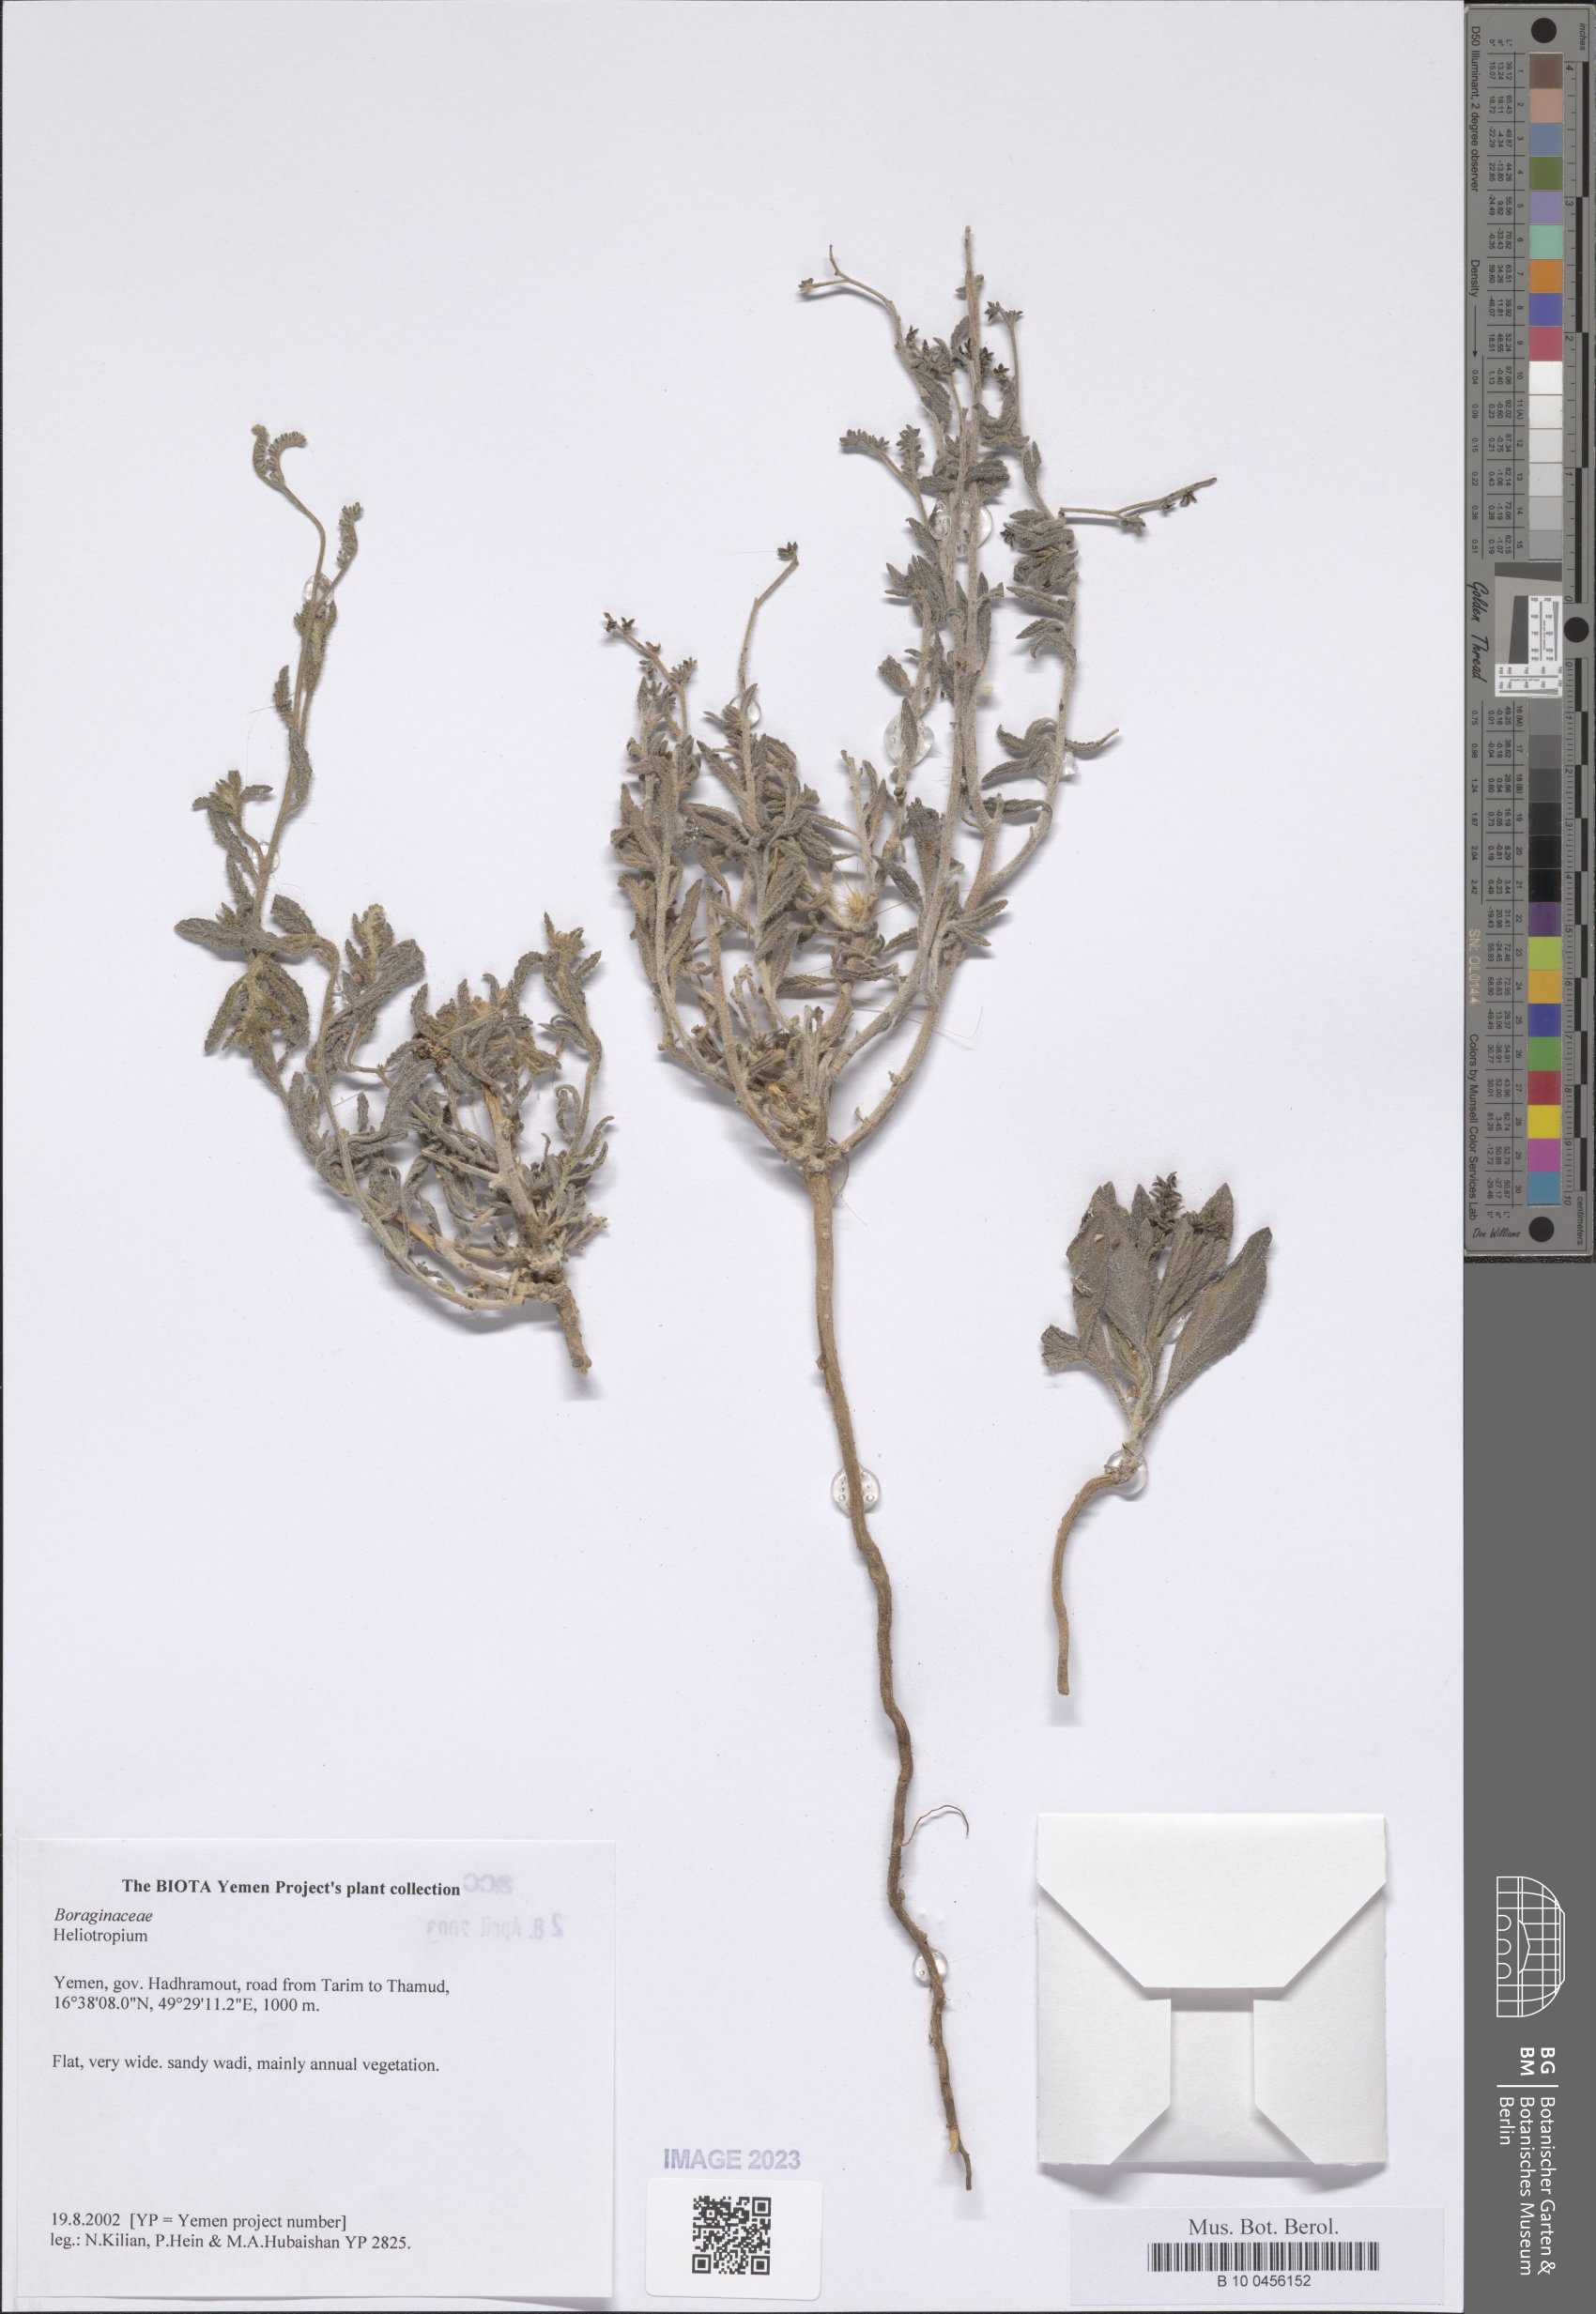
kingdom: Plantae
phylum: Tracheophyta
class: Magnoliopsida
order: Boraginales
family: Heliotropiaceae
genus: Heliotropium
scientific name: Heliotropium
